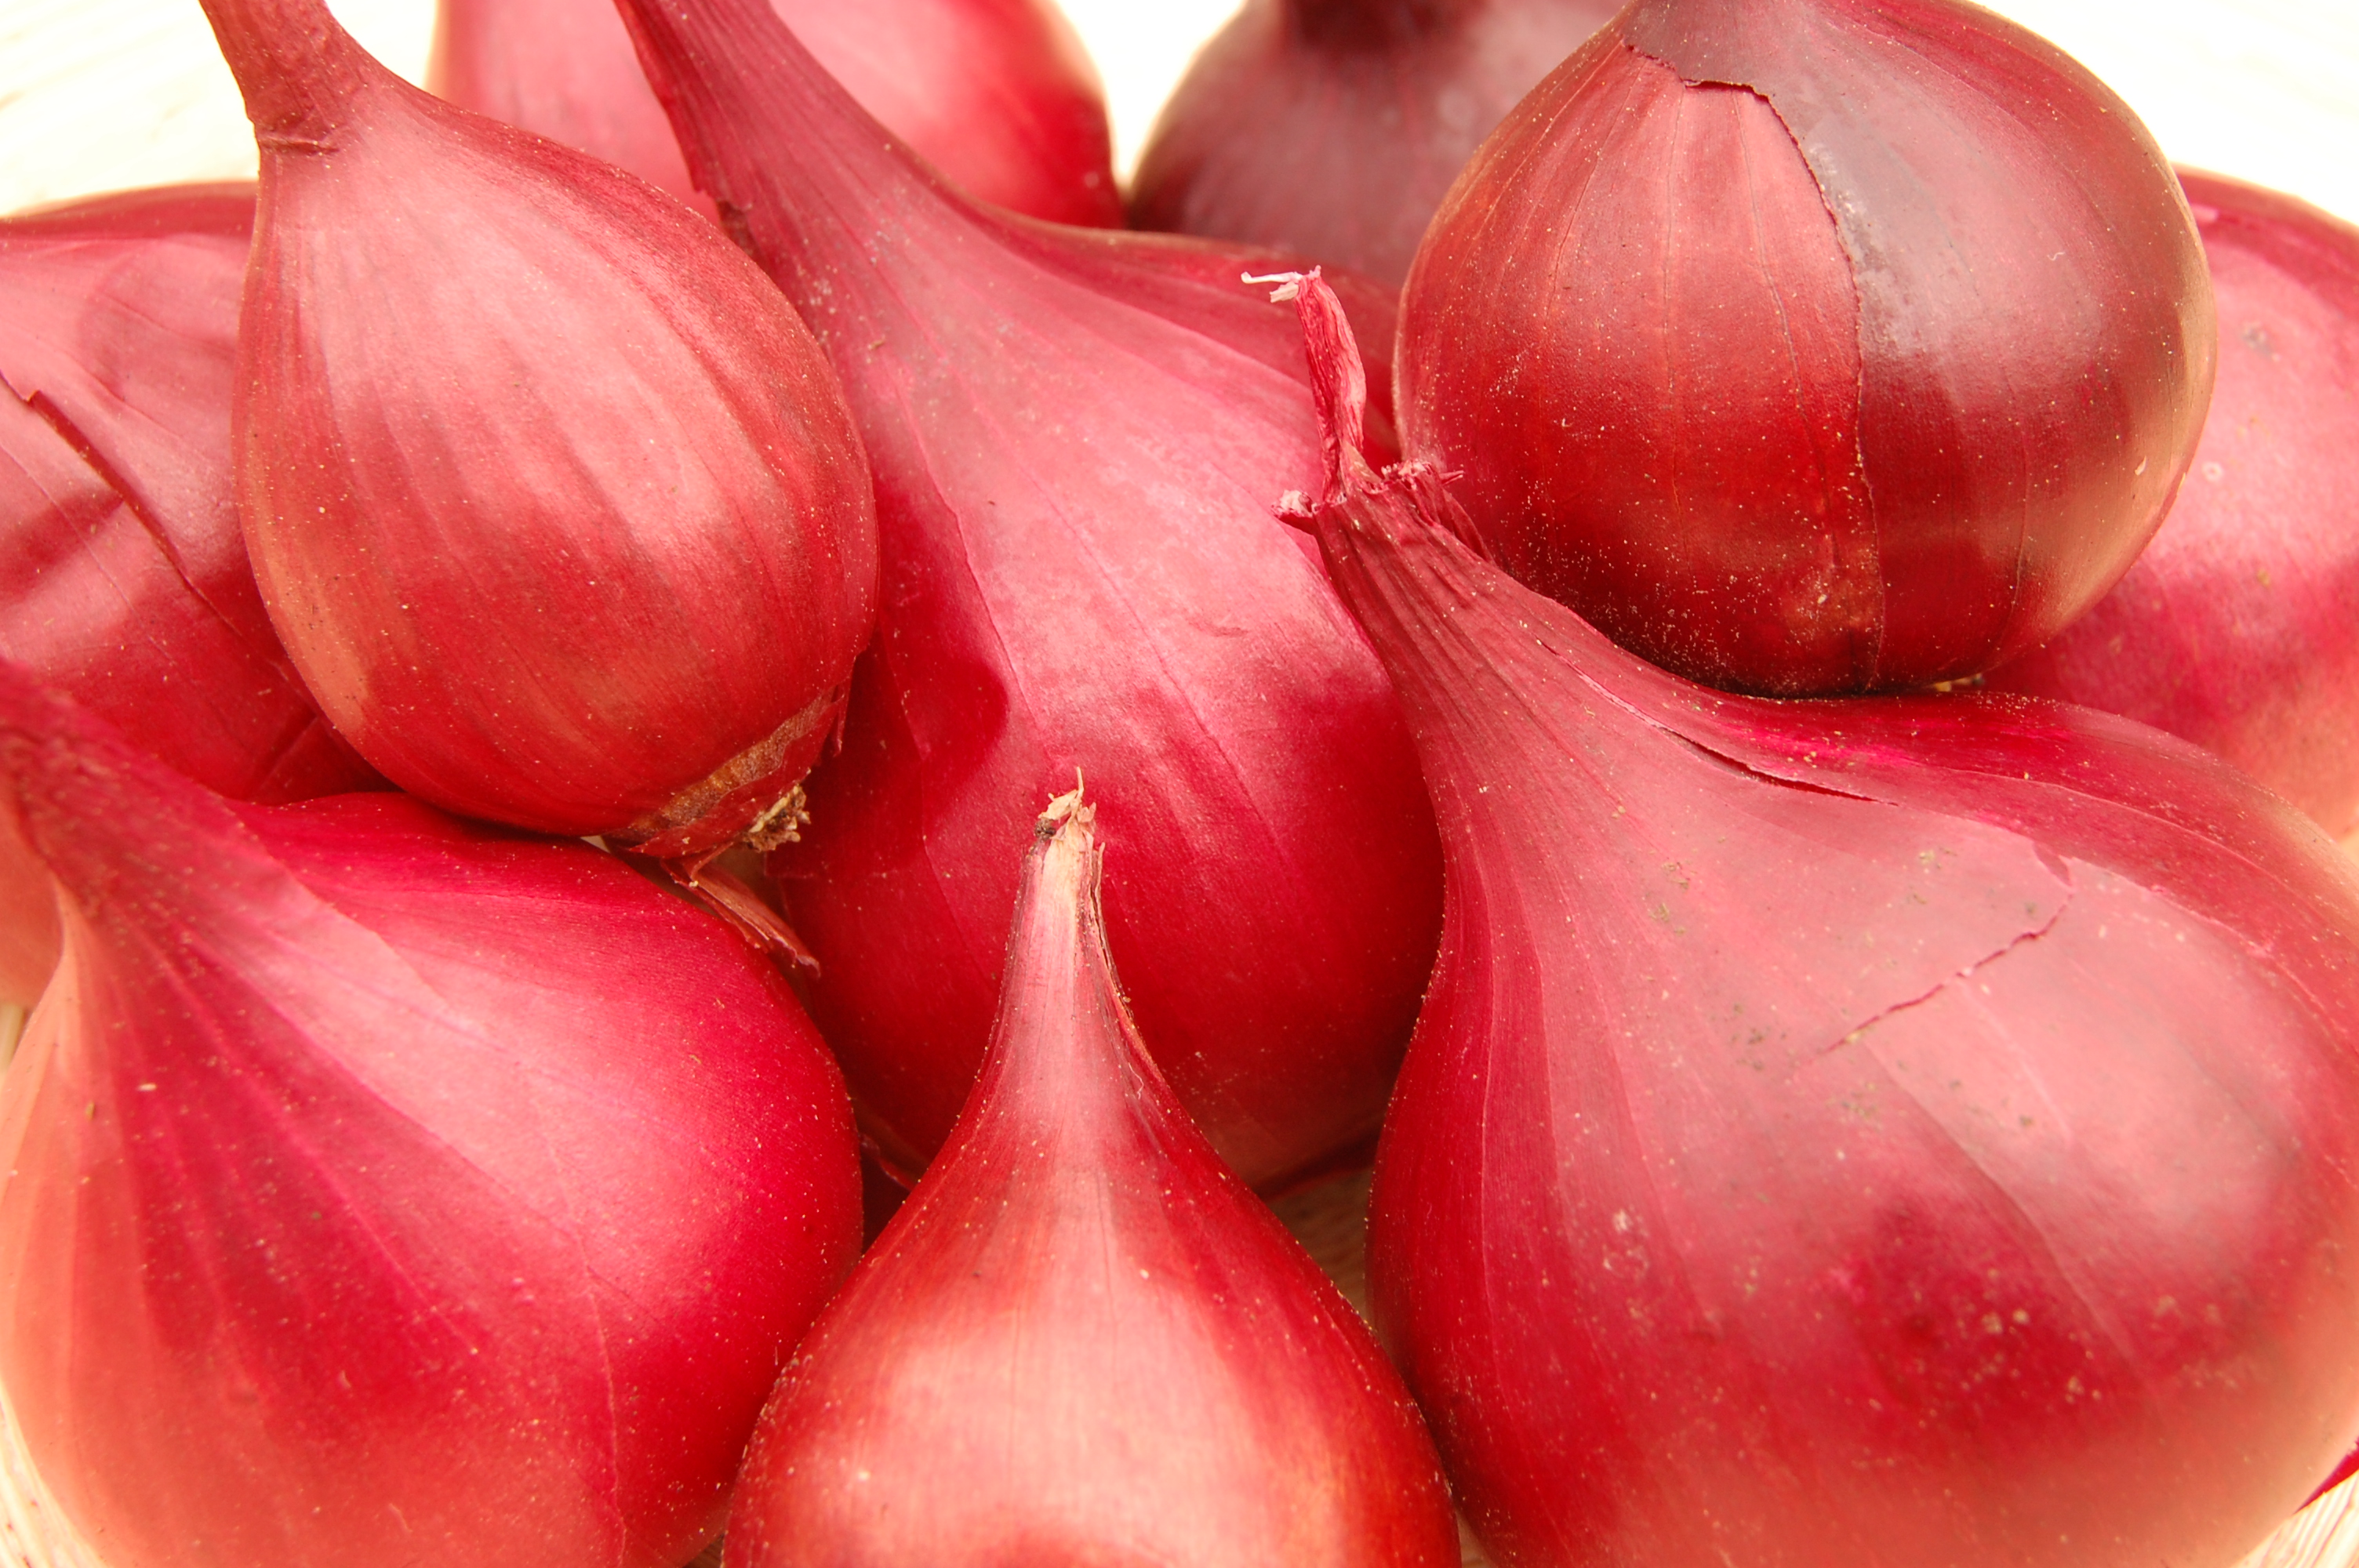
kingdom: Plantae
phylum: Tracheophyta
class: Liliopsida
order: Asparagales
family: Amaryllidaceae
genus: Allium
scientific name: Allium cepa
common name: Onion
